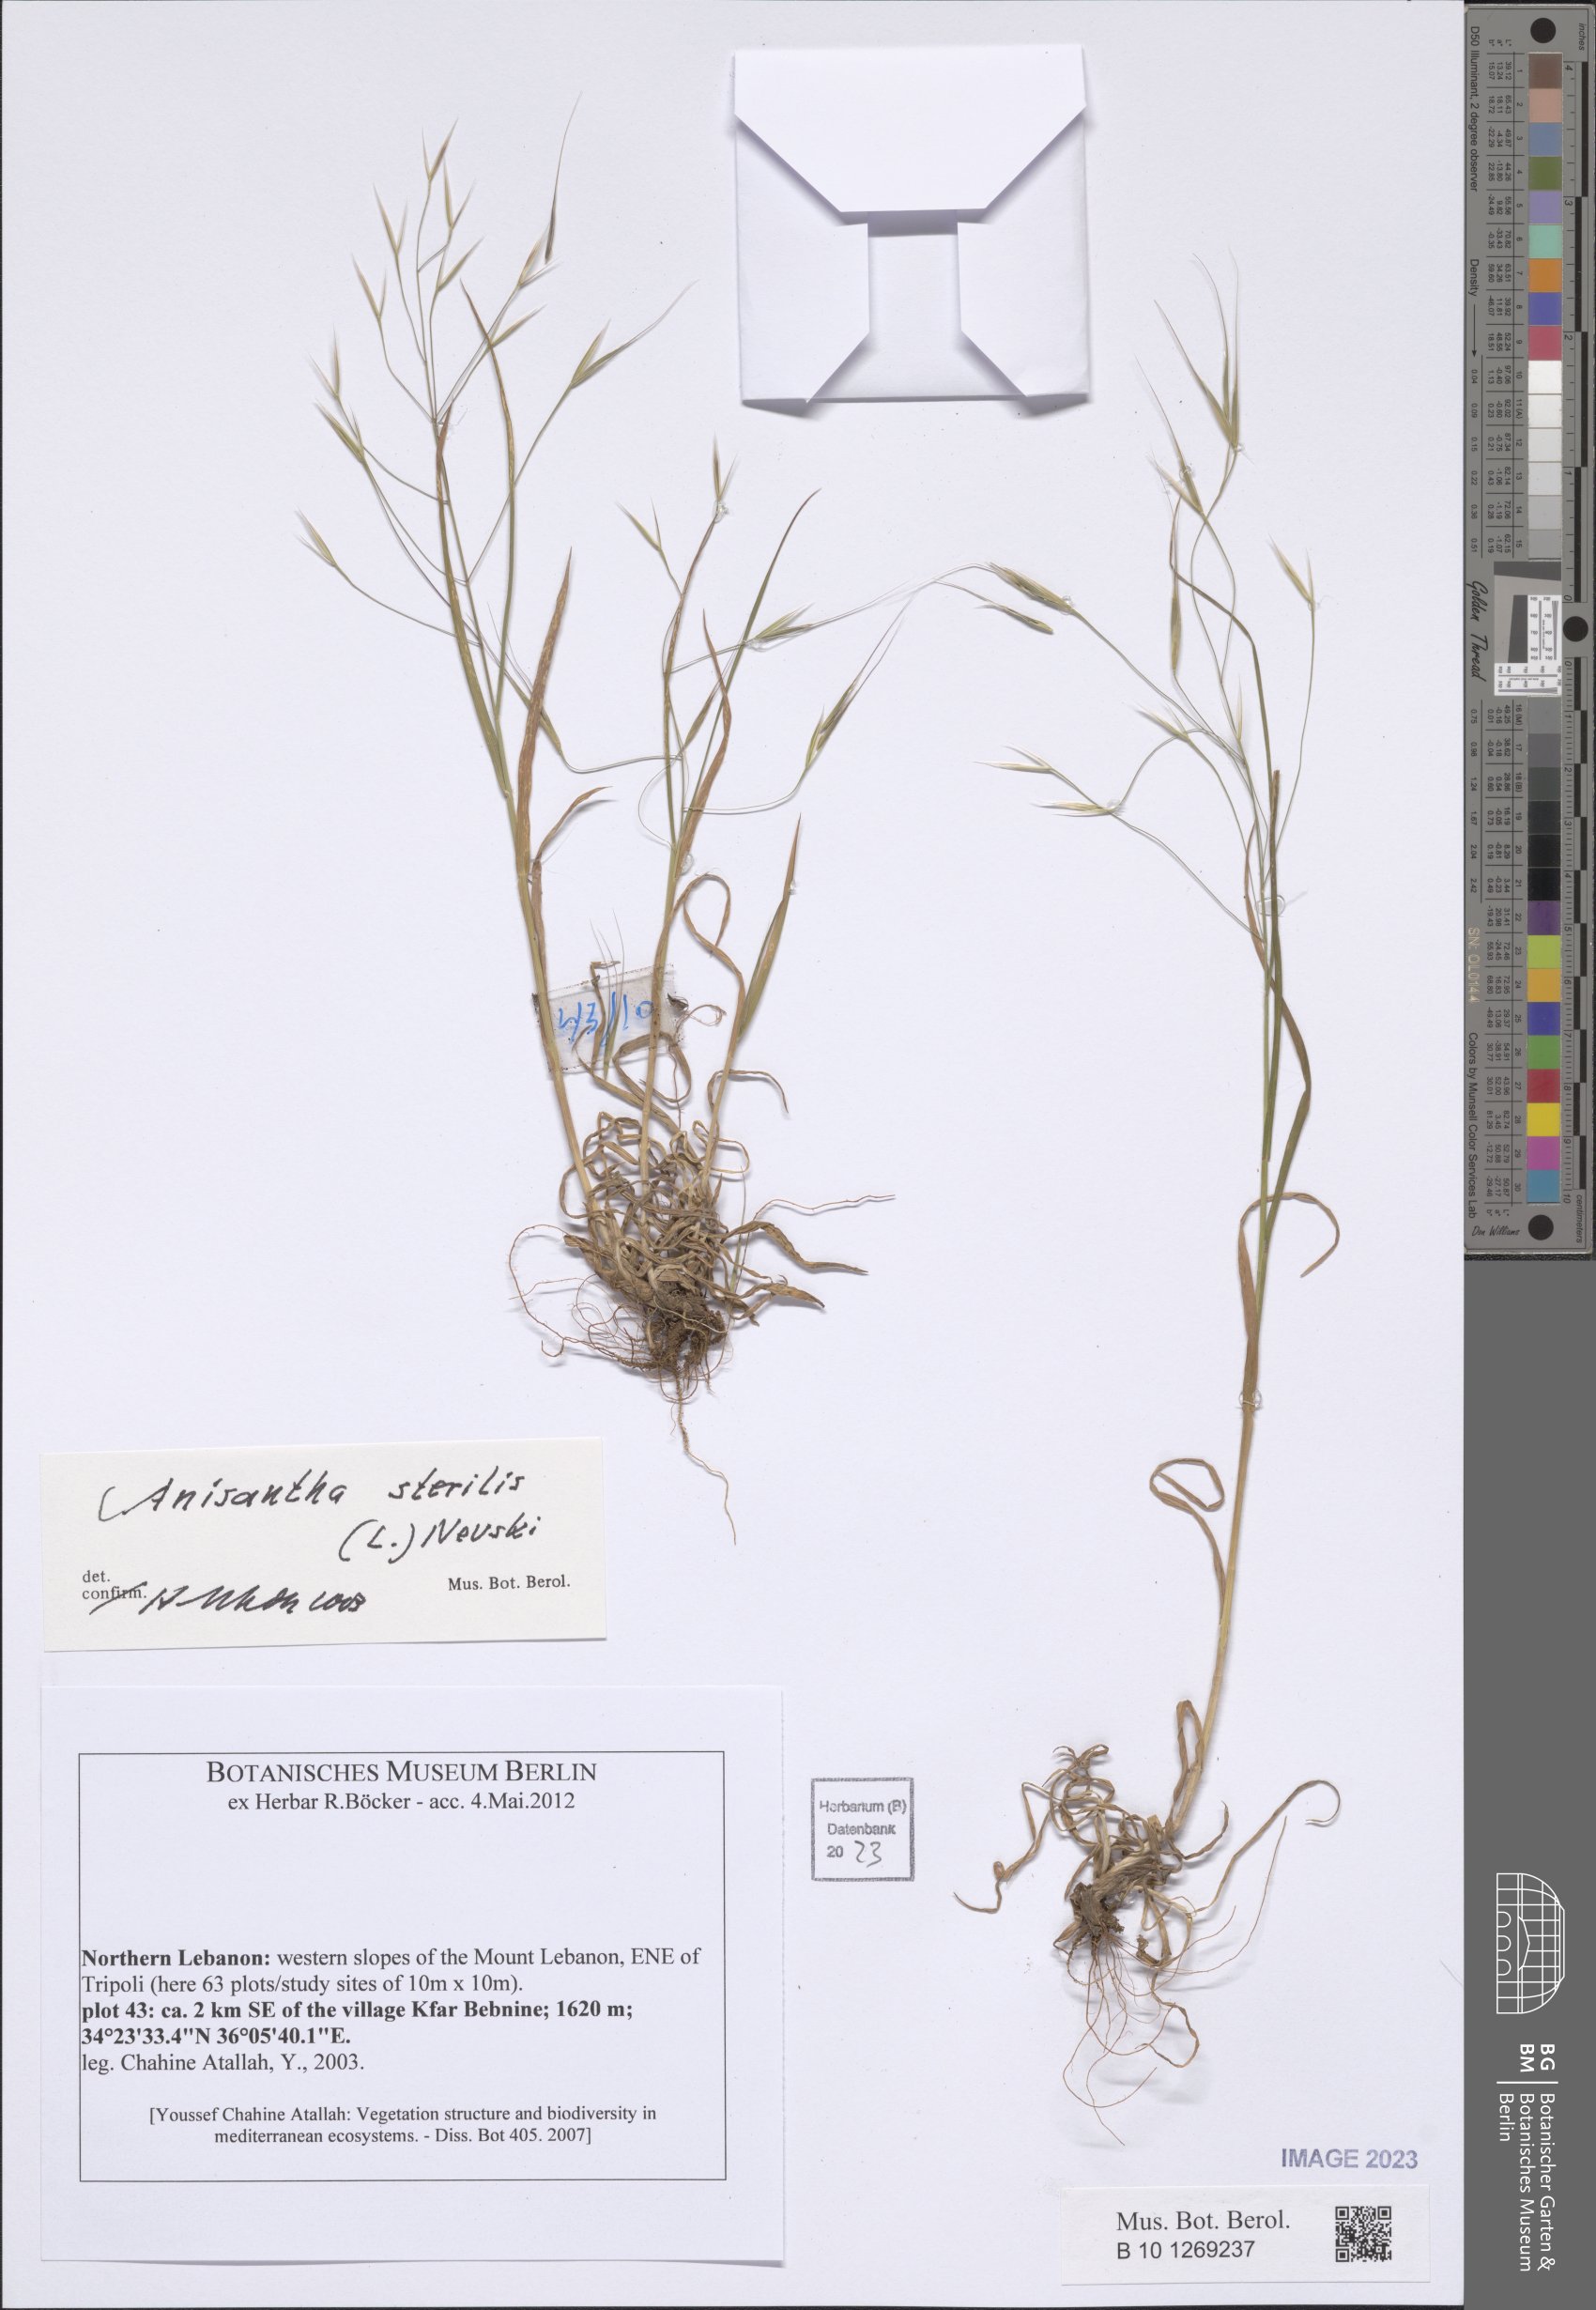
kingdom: Plantae
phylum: Tracheophyta
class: Liliopsida
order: Poales
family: Poaceae
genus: Bromus
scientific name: Bromus sterilis
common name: Poverty brome
